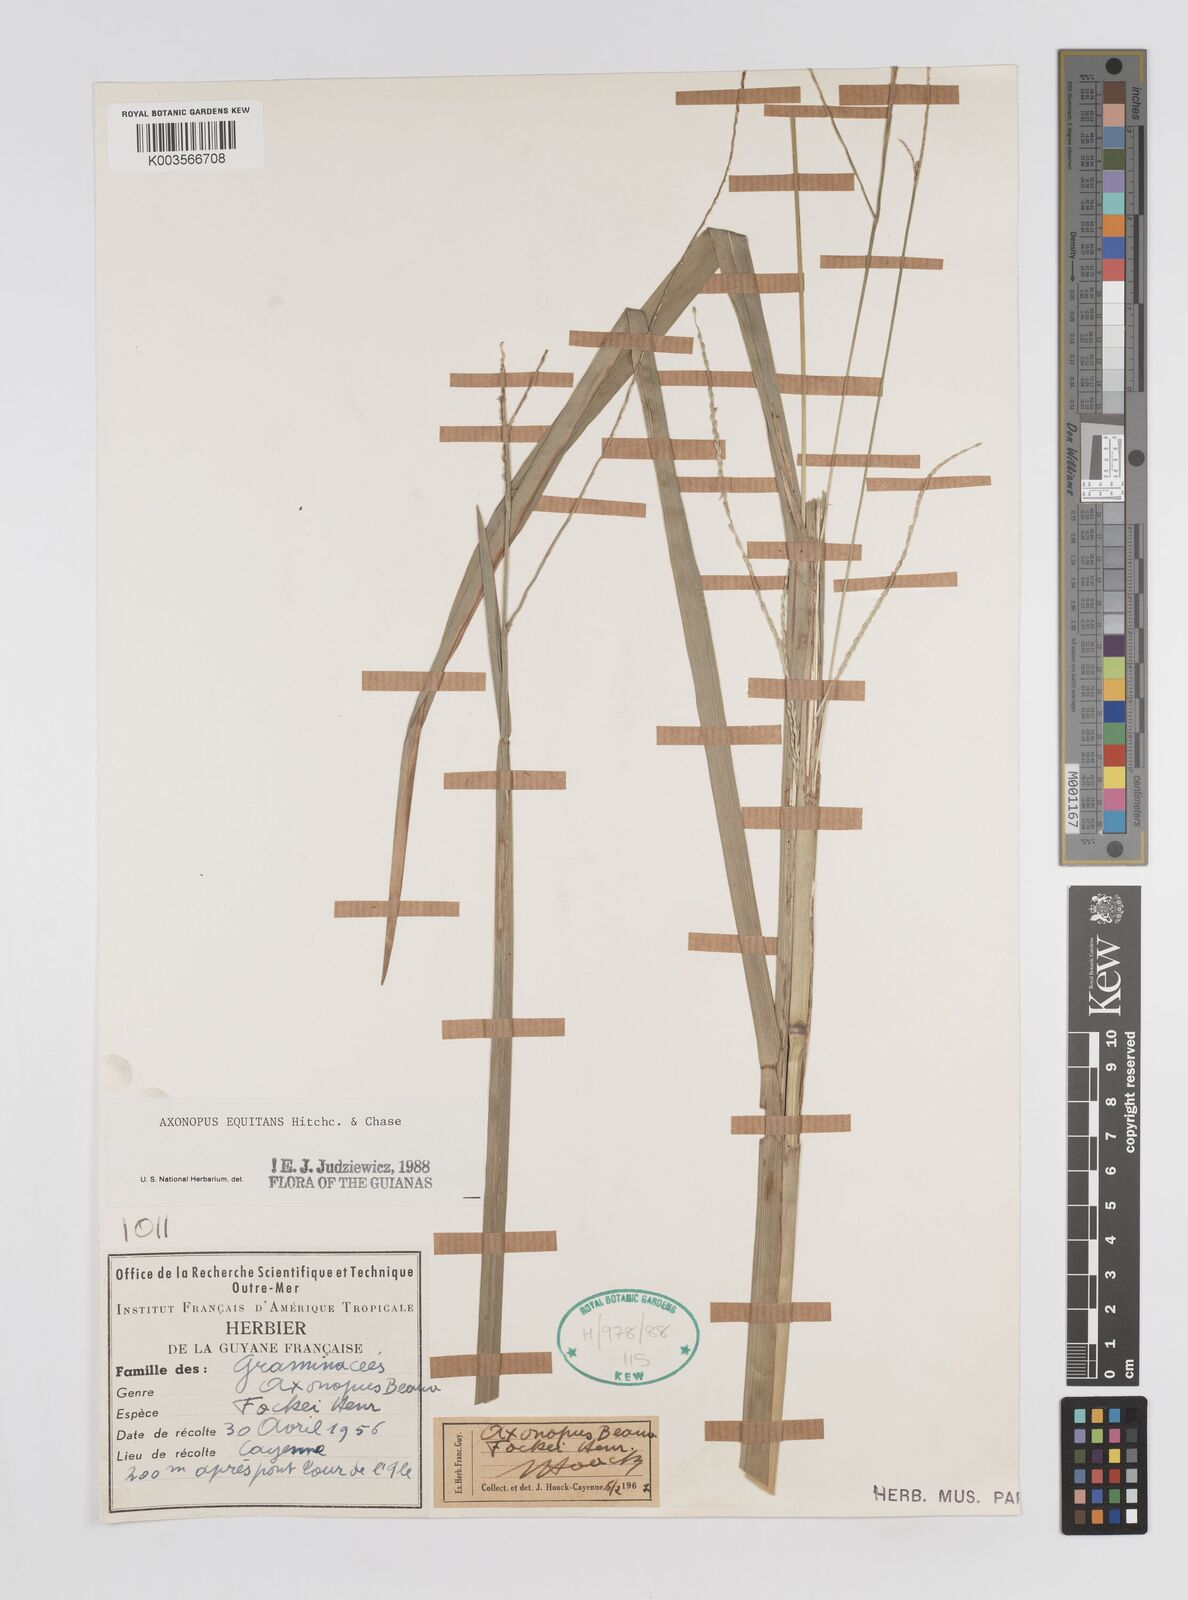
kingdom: Plantae
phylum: Tracheophyta
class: Liliopsida
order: Poales
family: Poaceae
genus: Axonopus
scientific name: Axonopus equitans
